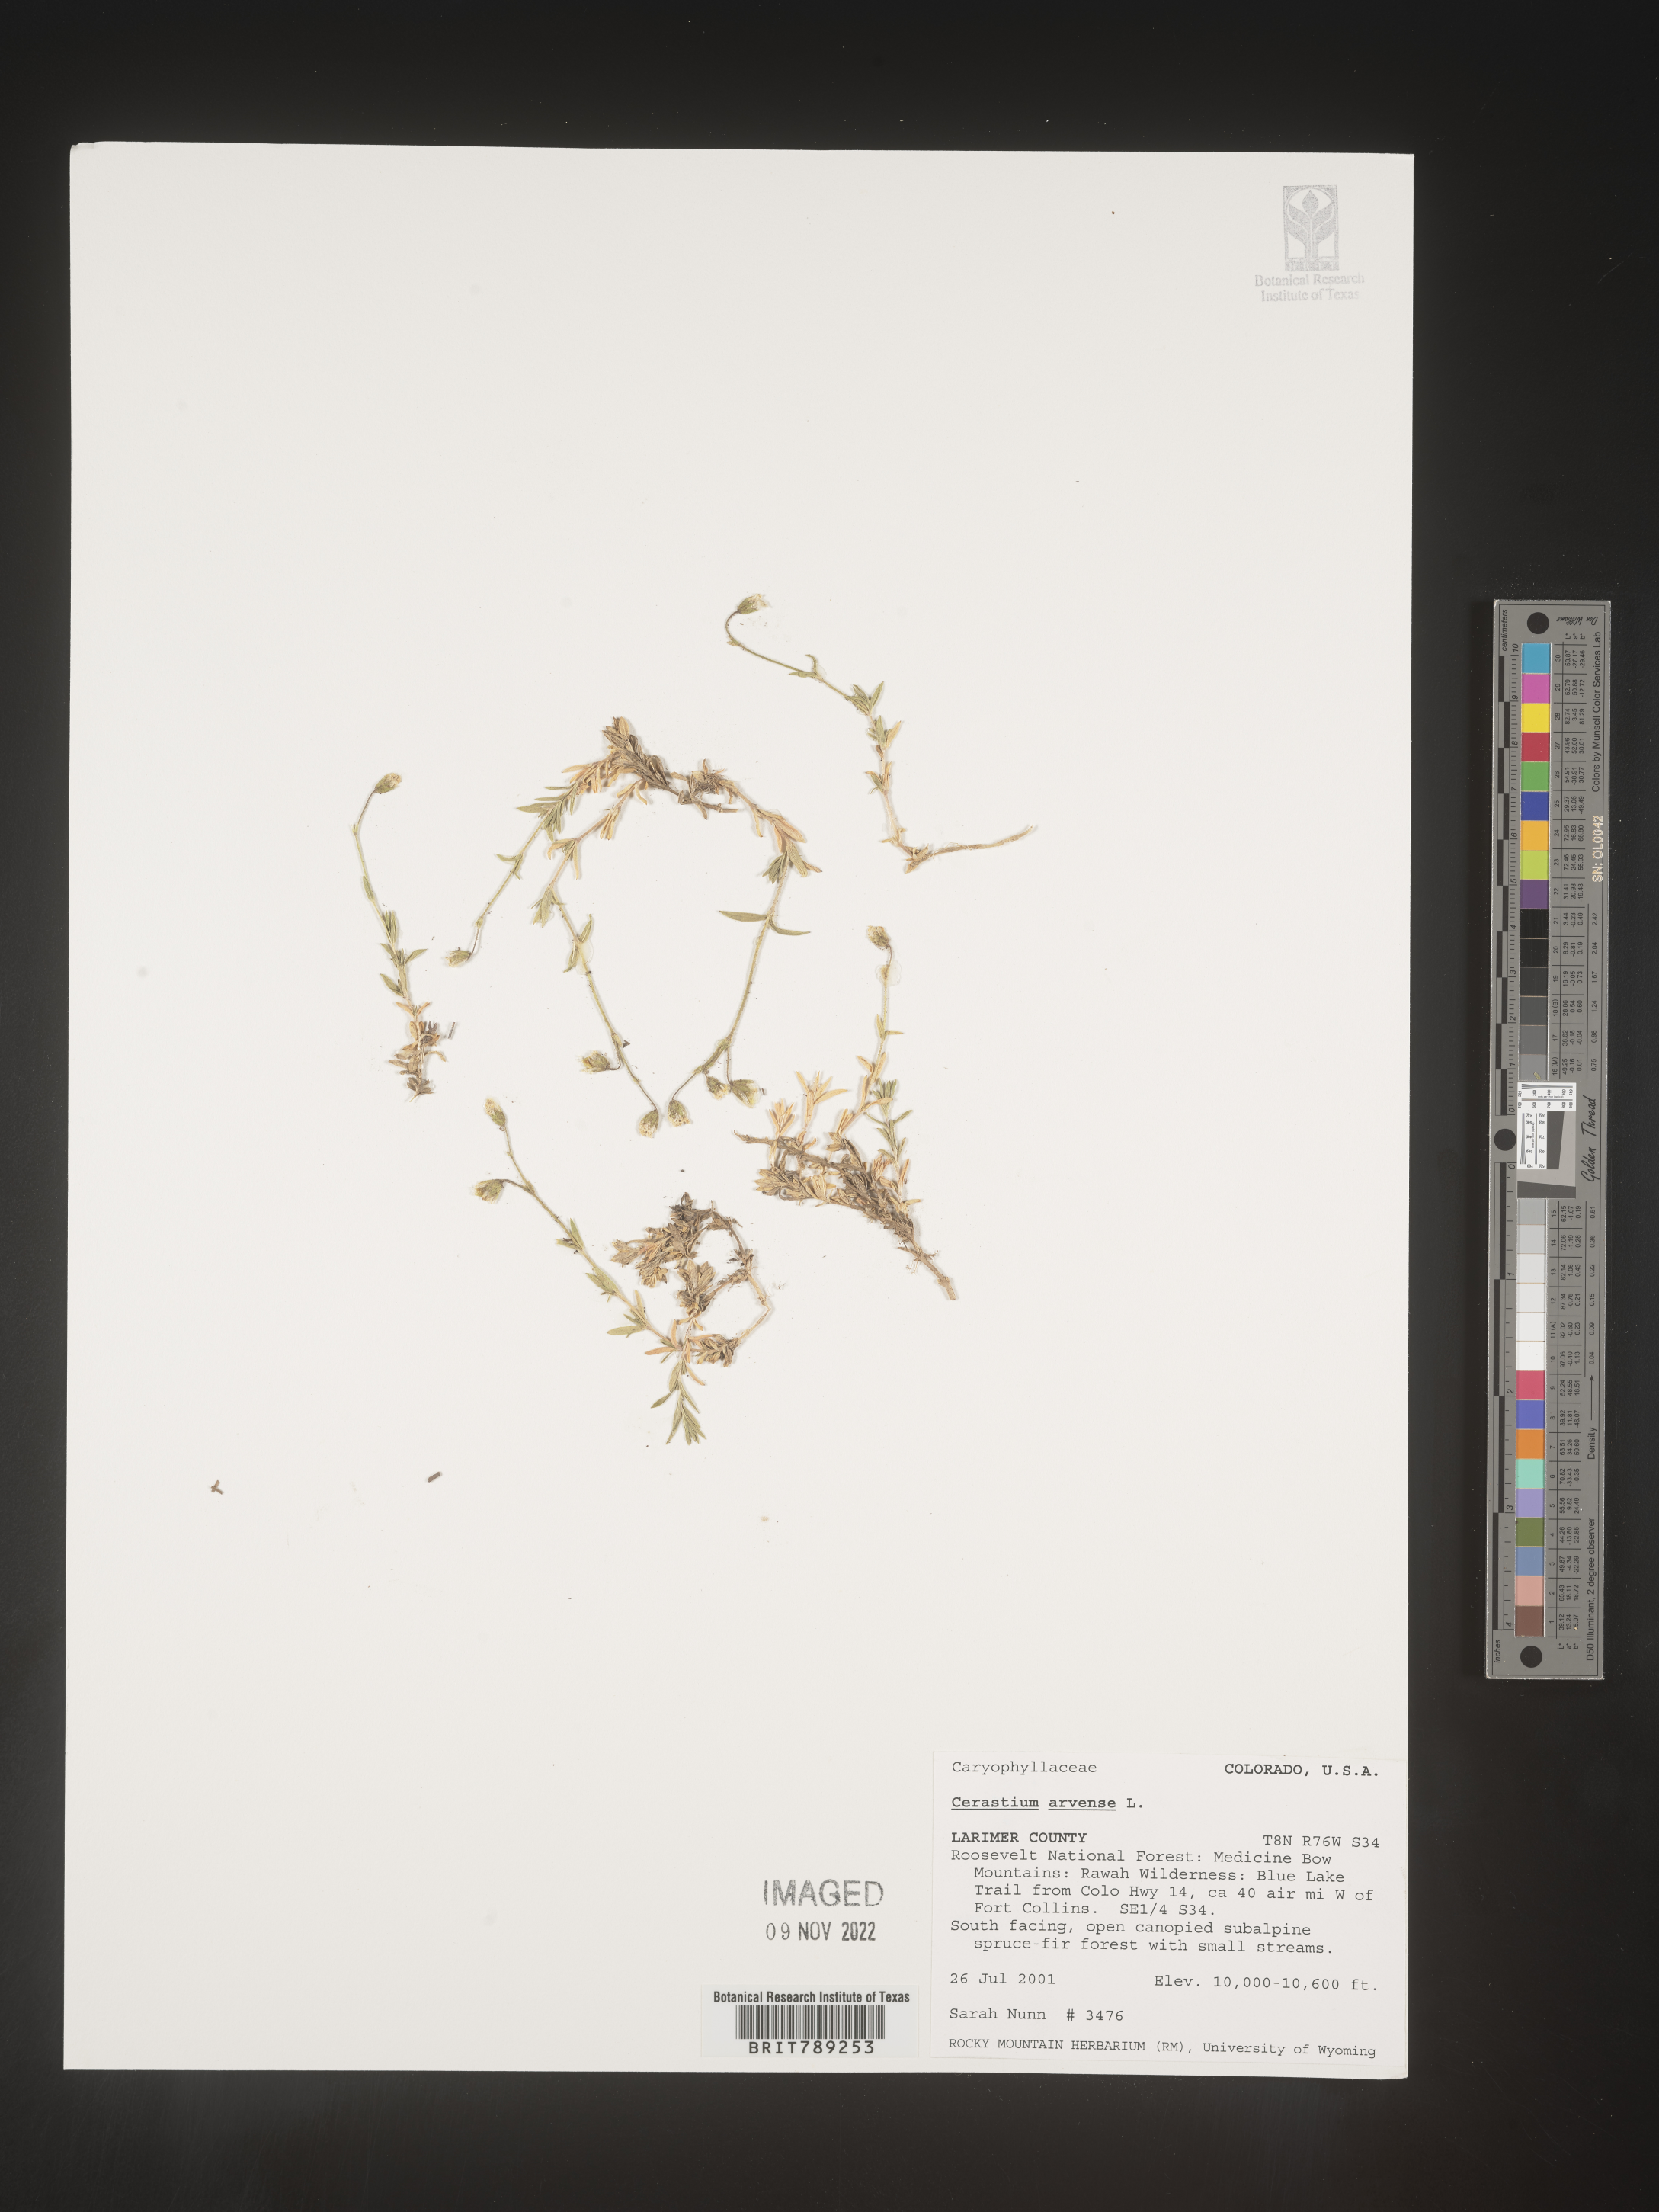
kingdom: Plantae
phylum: Tracheophyta
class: Magnoliopsida
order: Caryophyllales
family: Caryophyllaceae
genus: Cerastium
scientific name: Cerastium arvense
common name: Field mouse-ear
